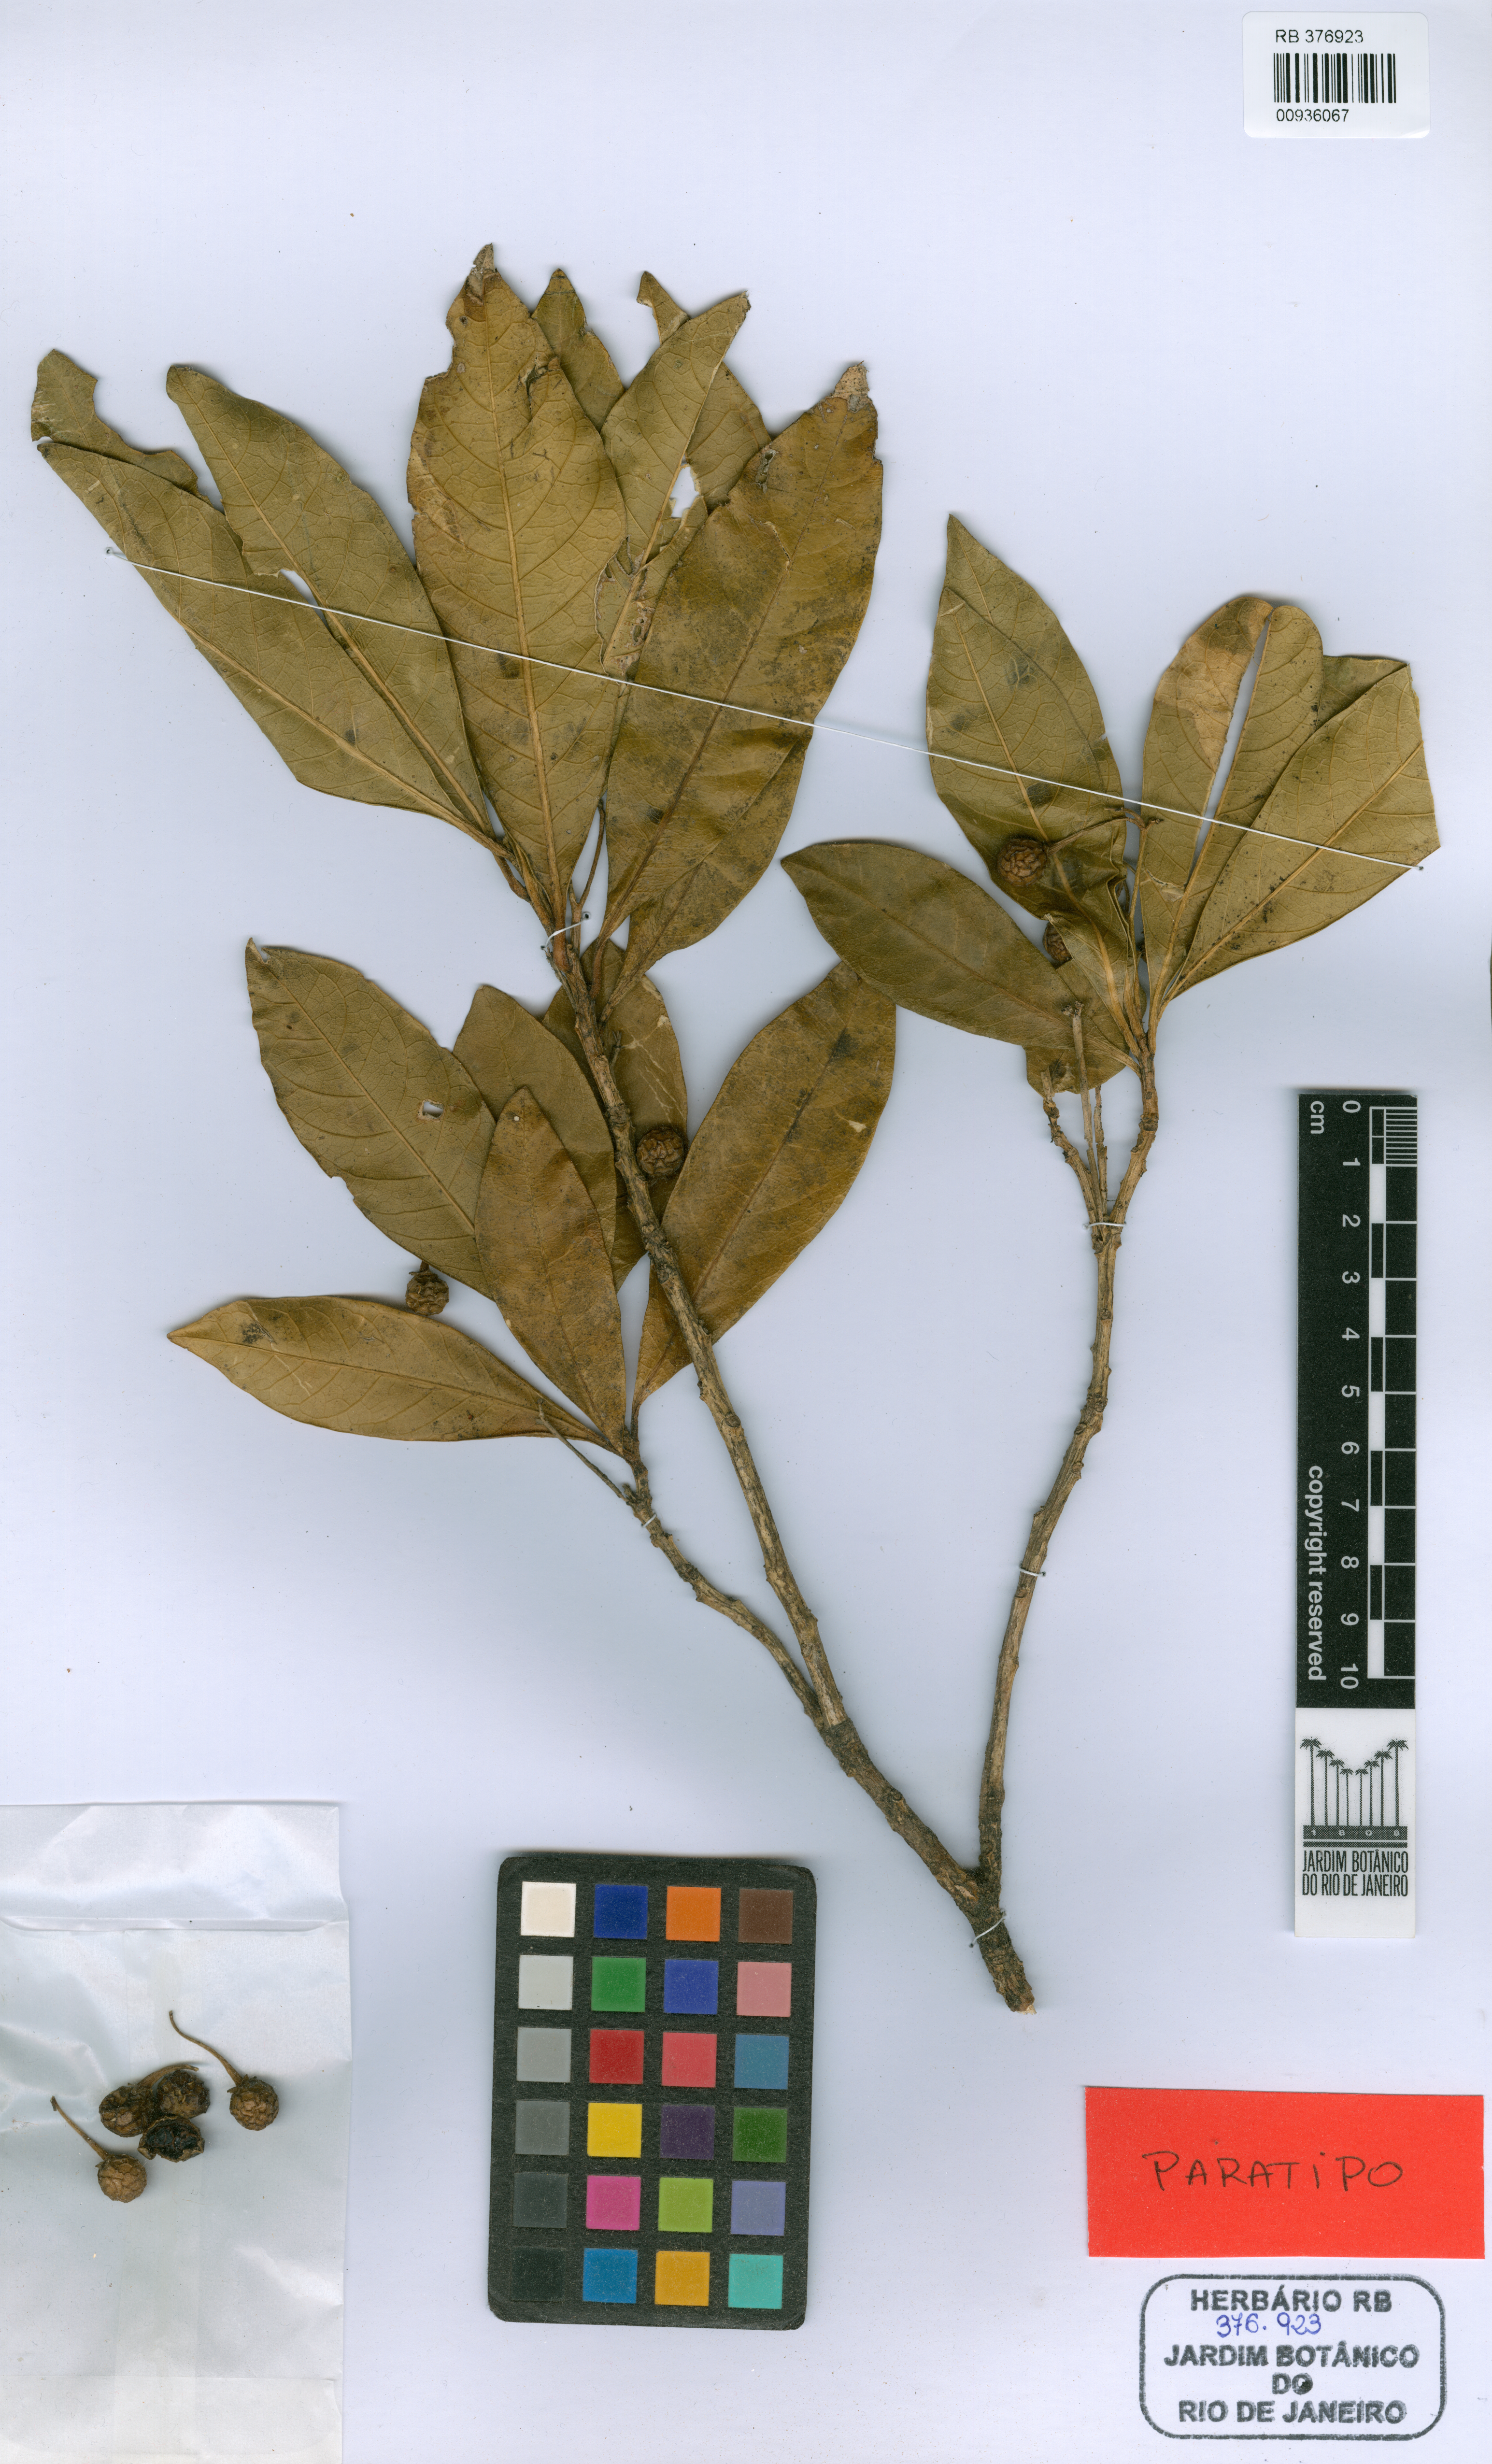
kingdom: Plantae
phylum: Tracheophyta
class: Magnoliopsida
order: Solanales
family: Solanaceae
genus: Solanum
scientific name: Solanum verticillatum
